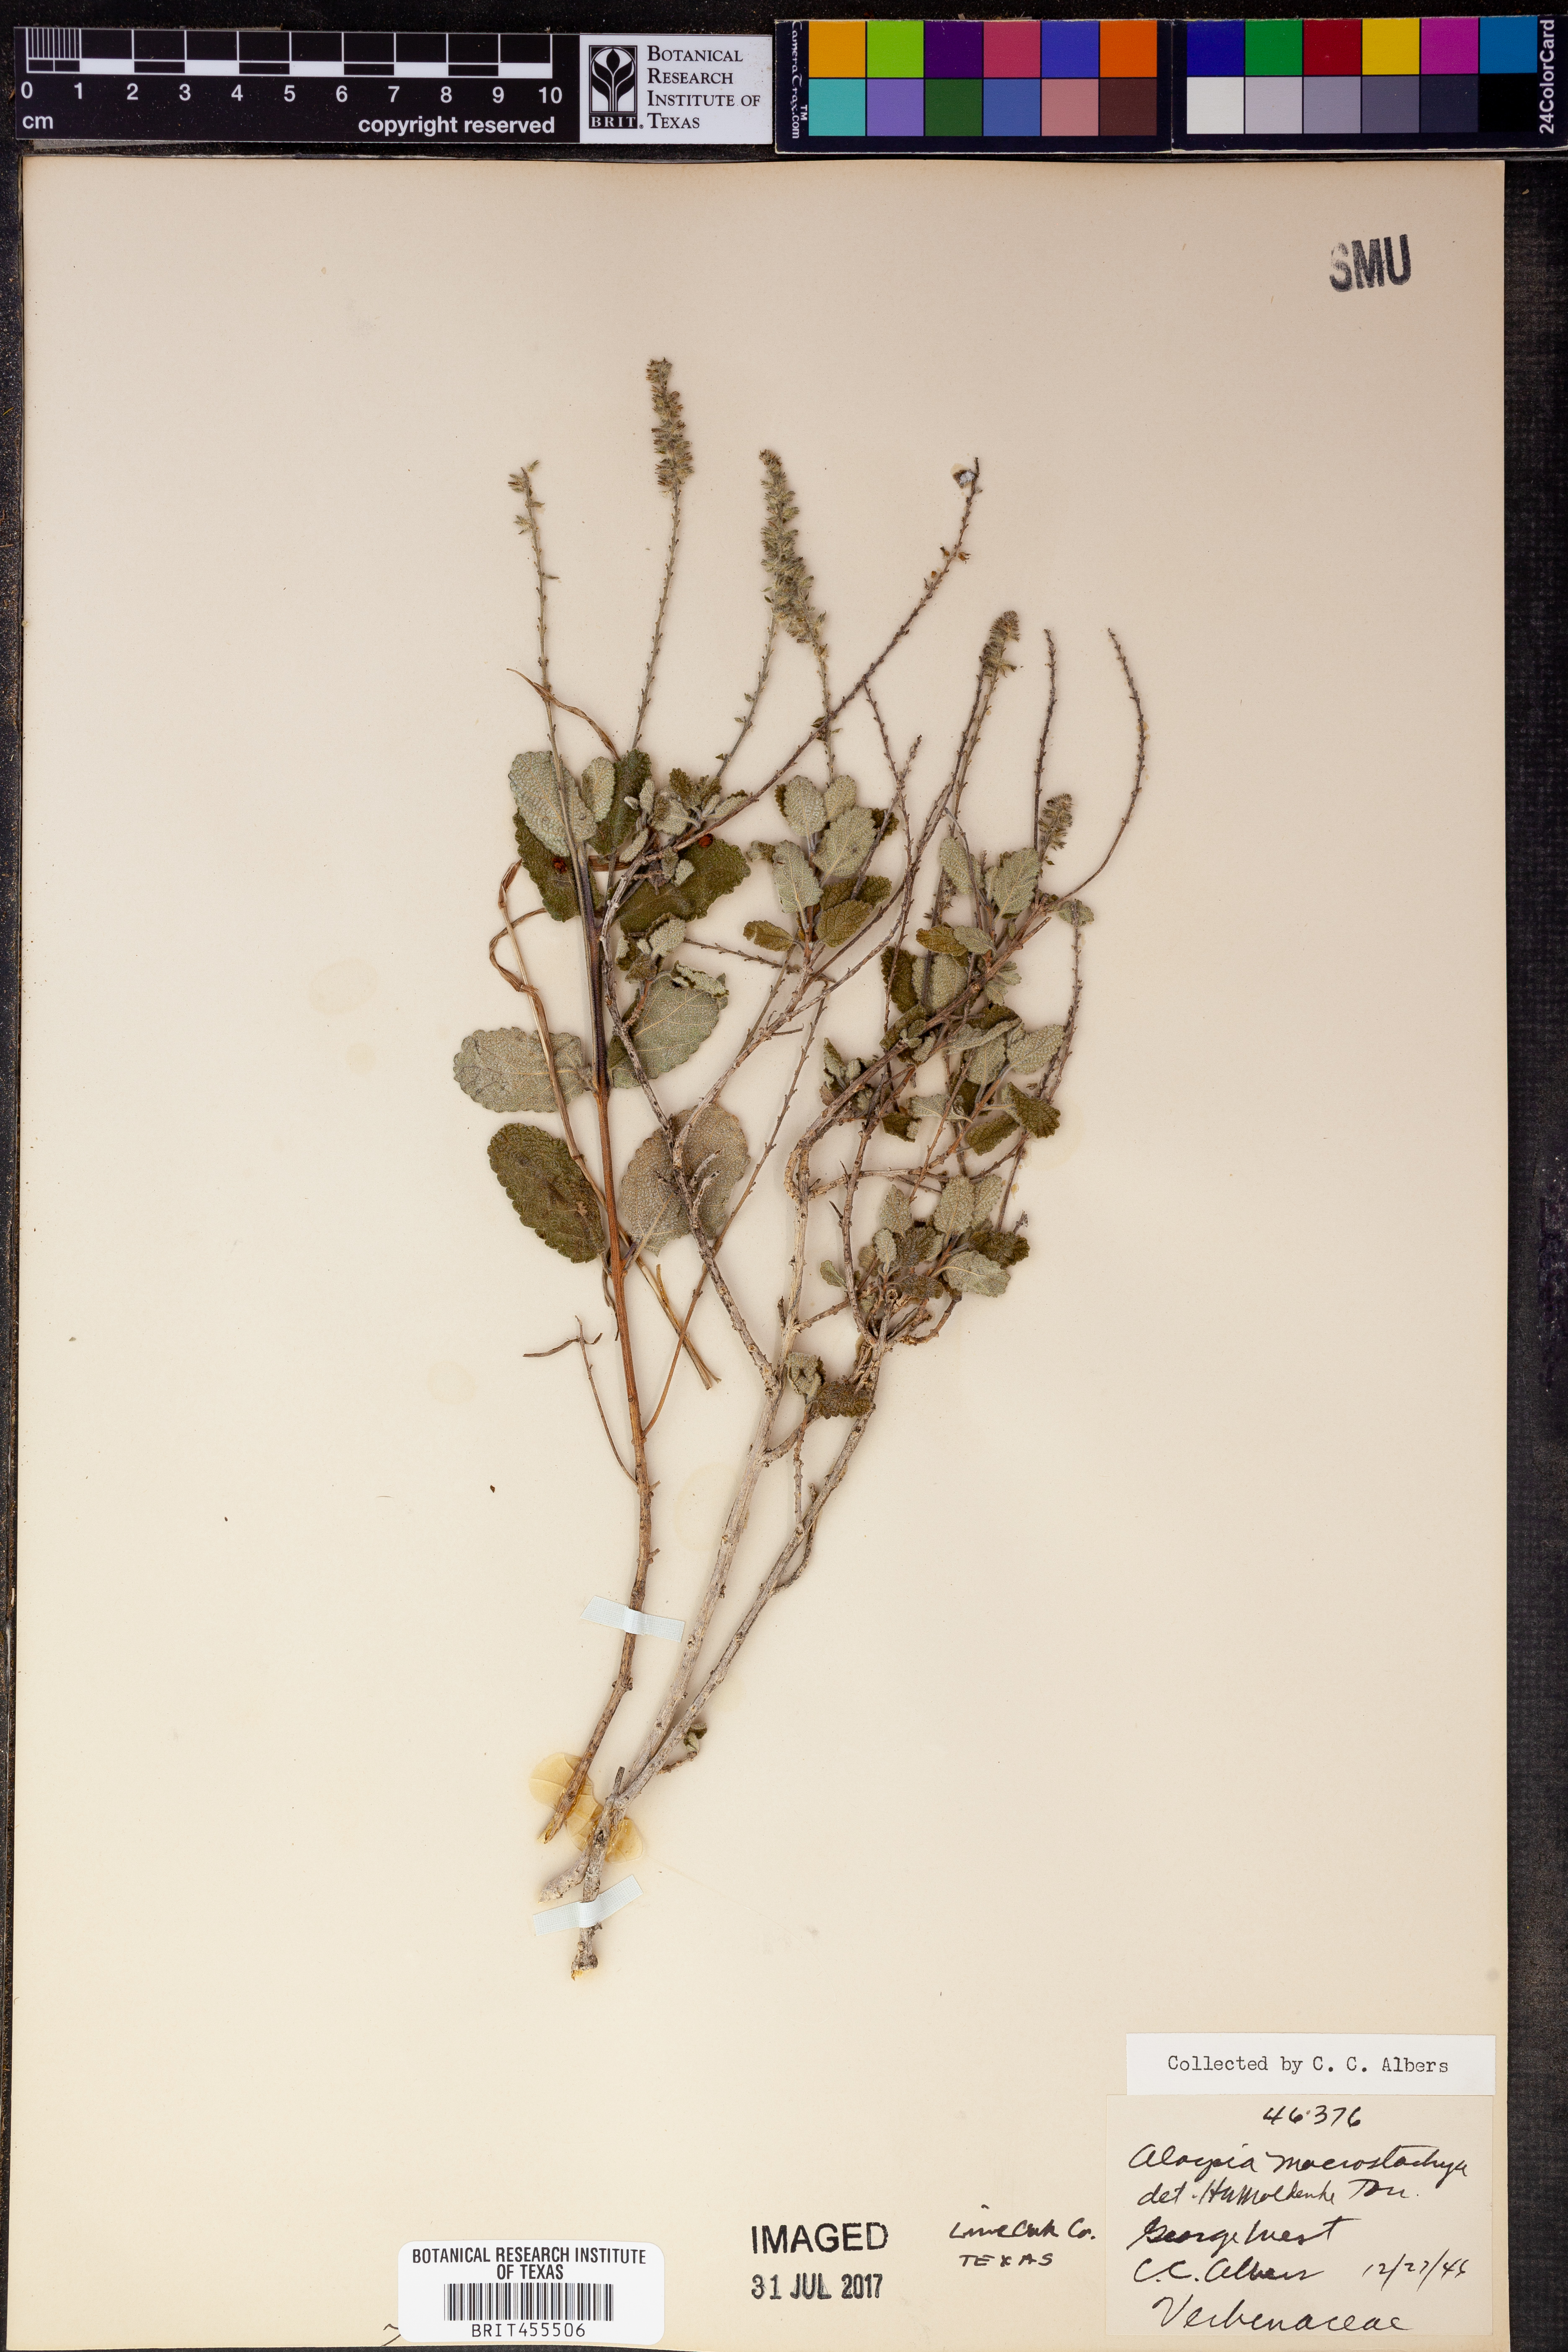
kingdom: Plantae
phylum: Tracheophyta
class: Magnoliopsida
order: Lamiales
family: Verbenaceae
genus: Aloysia
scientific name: Aloysia macrostachya
